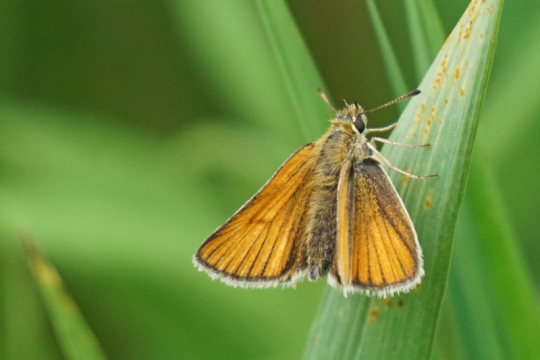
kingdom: Animalia
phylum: Arthropoda
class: Insecta
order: Lepidoptera
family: Hesperiidae
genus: Thymelicus
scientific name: Thymelicus lineola
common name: European Skipper
